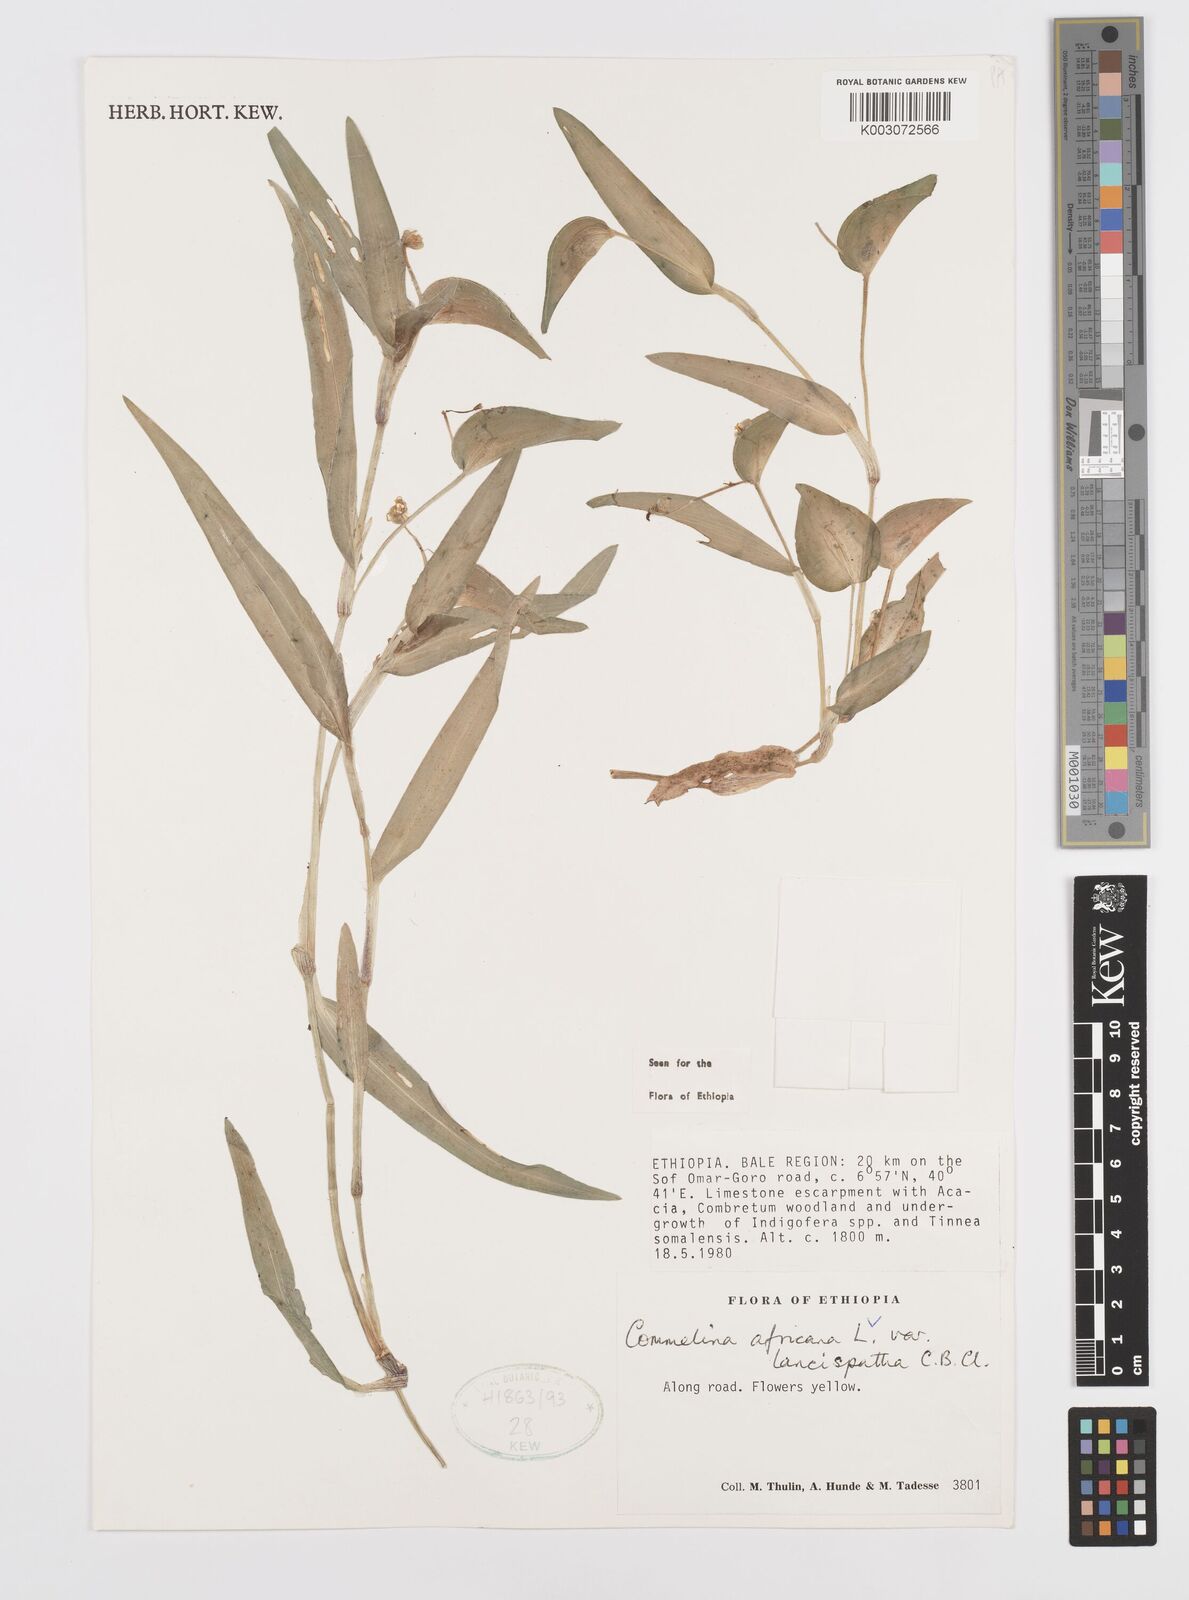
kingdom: Plantae
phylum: Tracheophyta
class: Liliopsida
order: Commelinales
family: Commelinaceae
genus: Commelina
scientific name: Commelina africana
